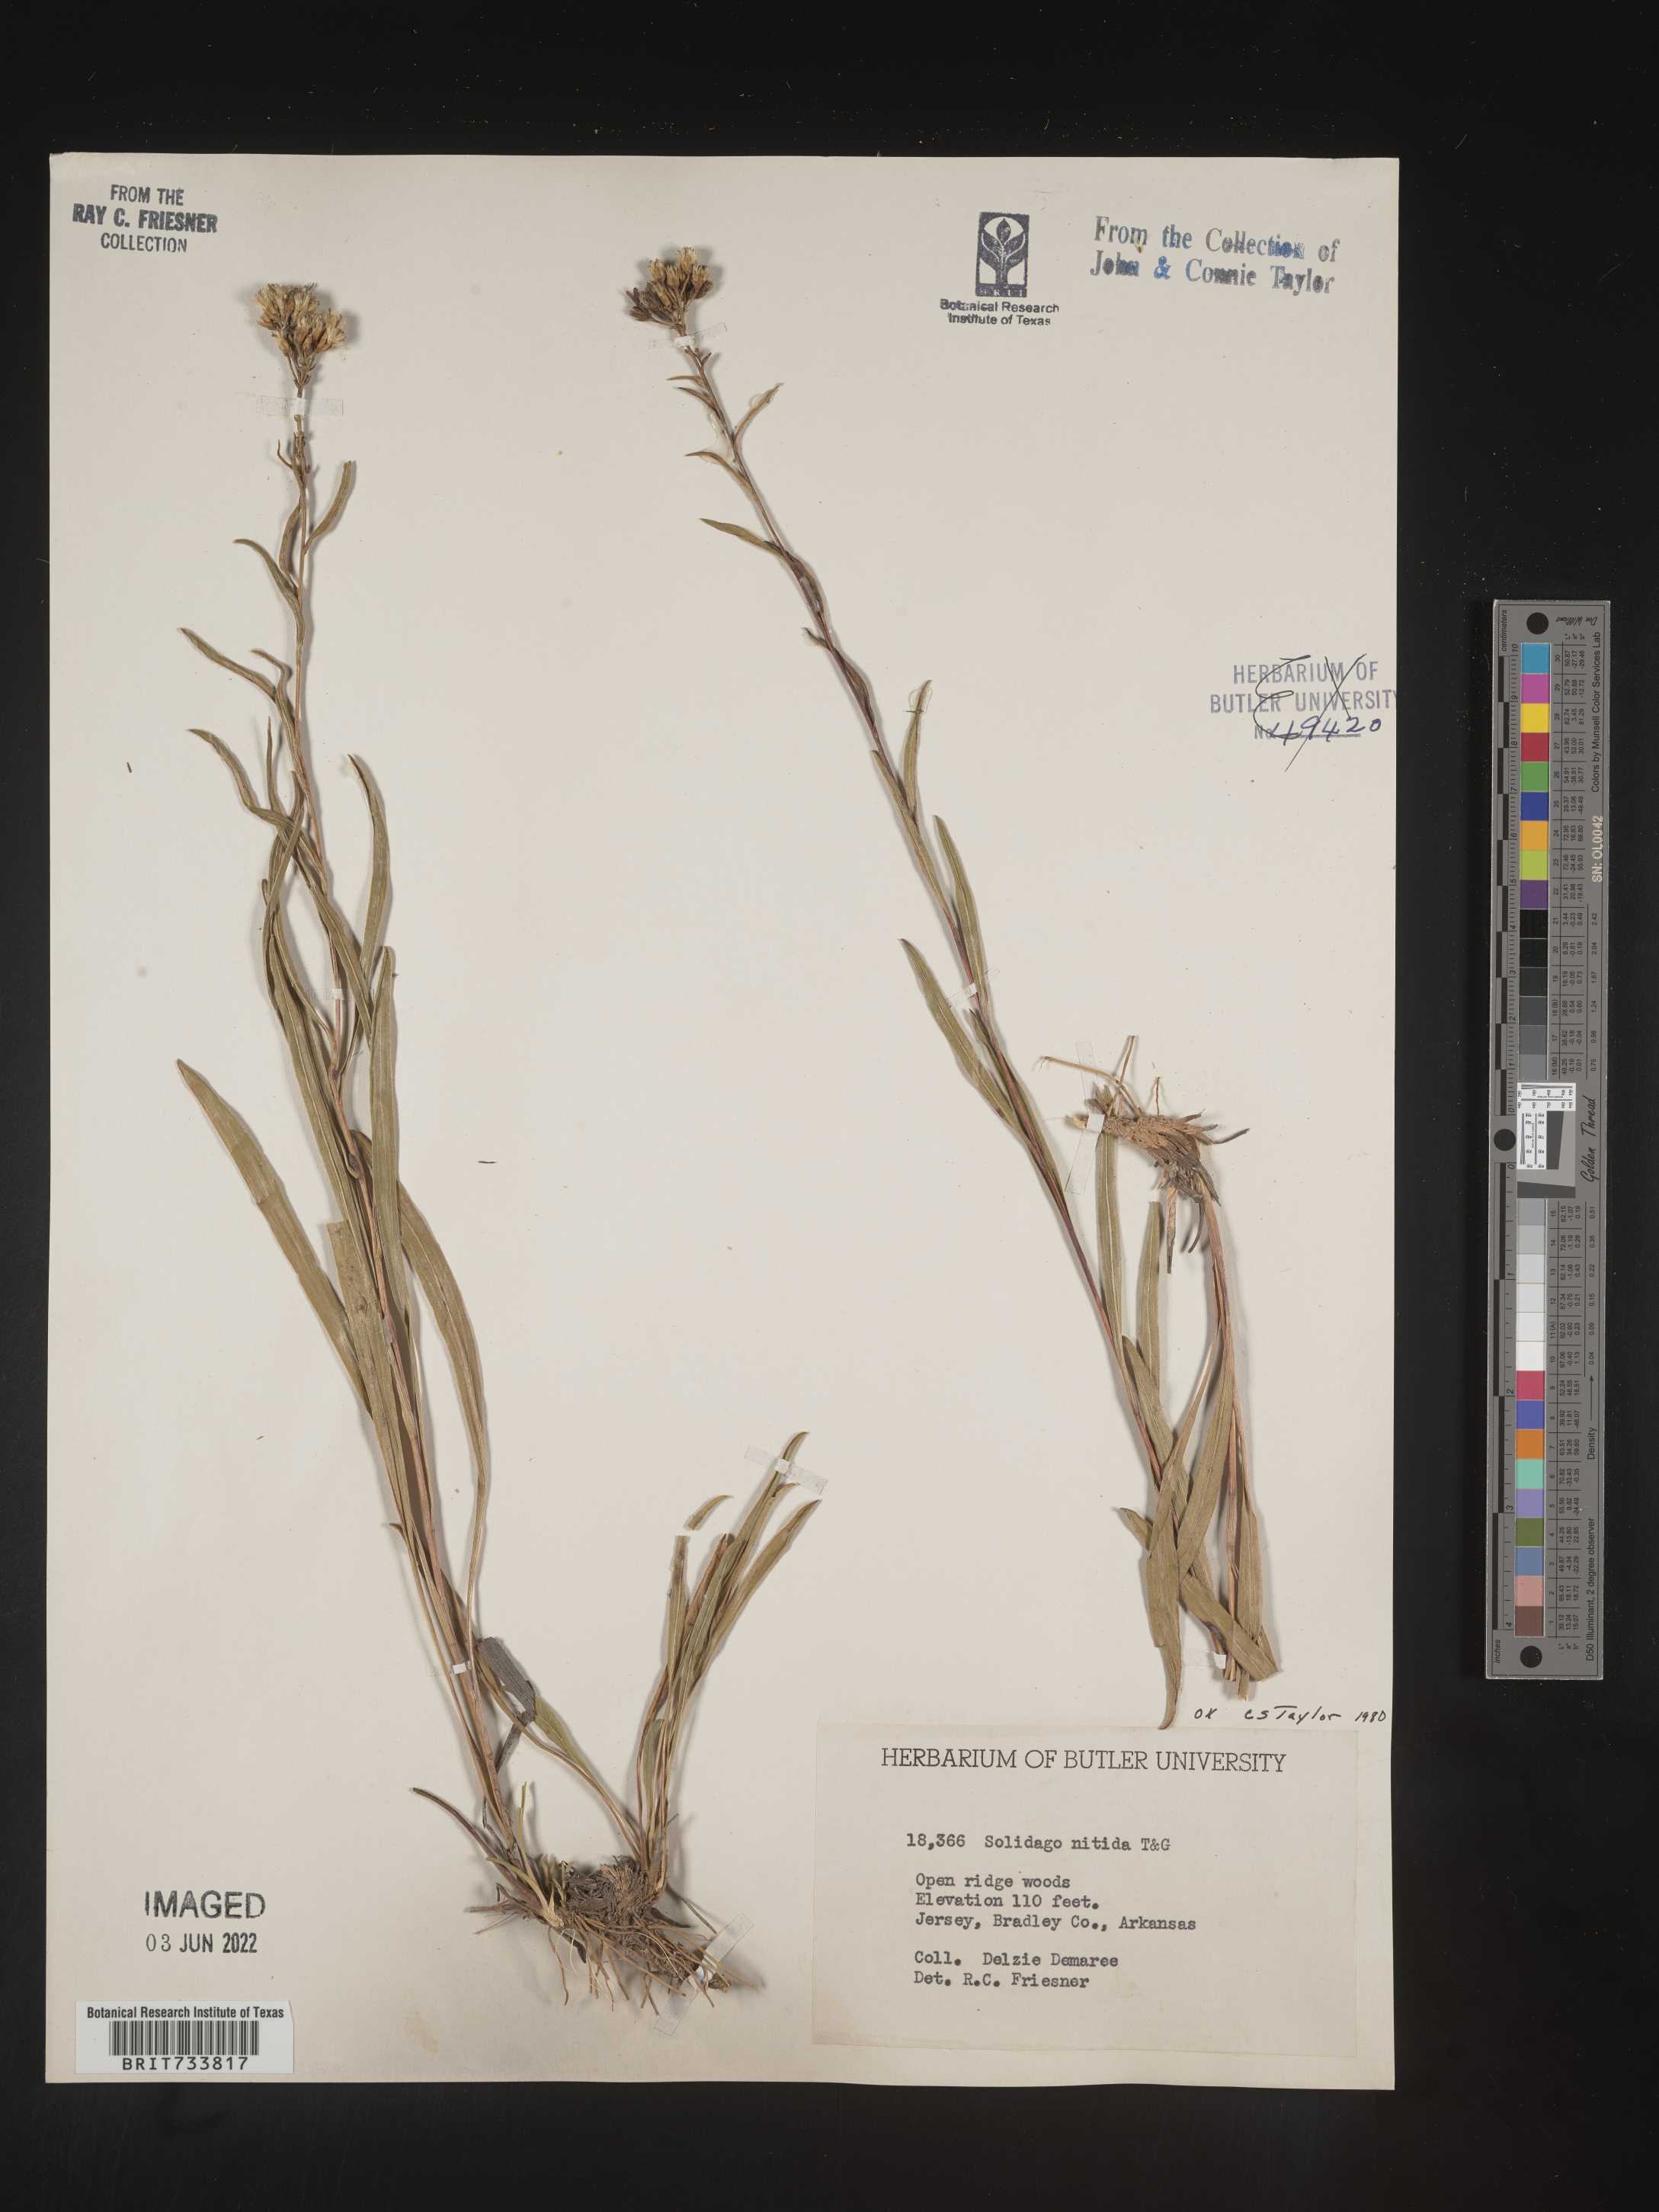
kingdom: Plantae
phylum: Tracheophyta
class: Magnoliopsida
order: Asterales
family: Asteraceae
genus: Solidago
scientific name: Solidago nitida
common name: Shiny goldenrod
